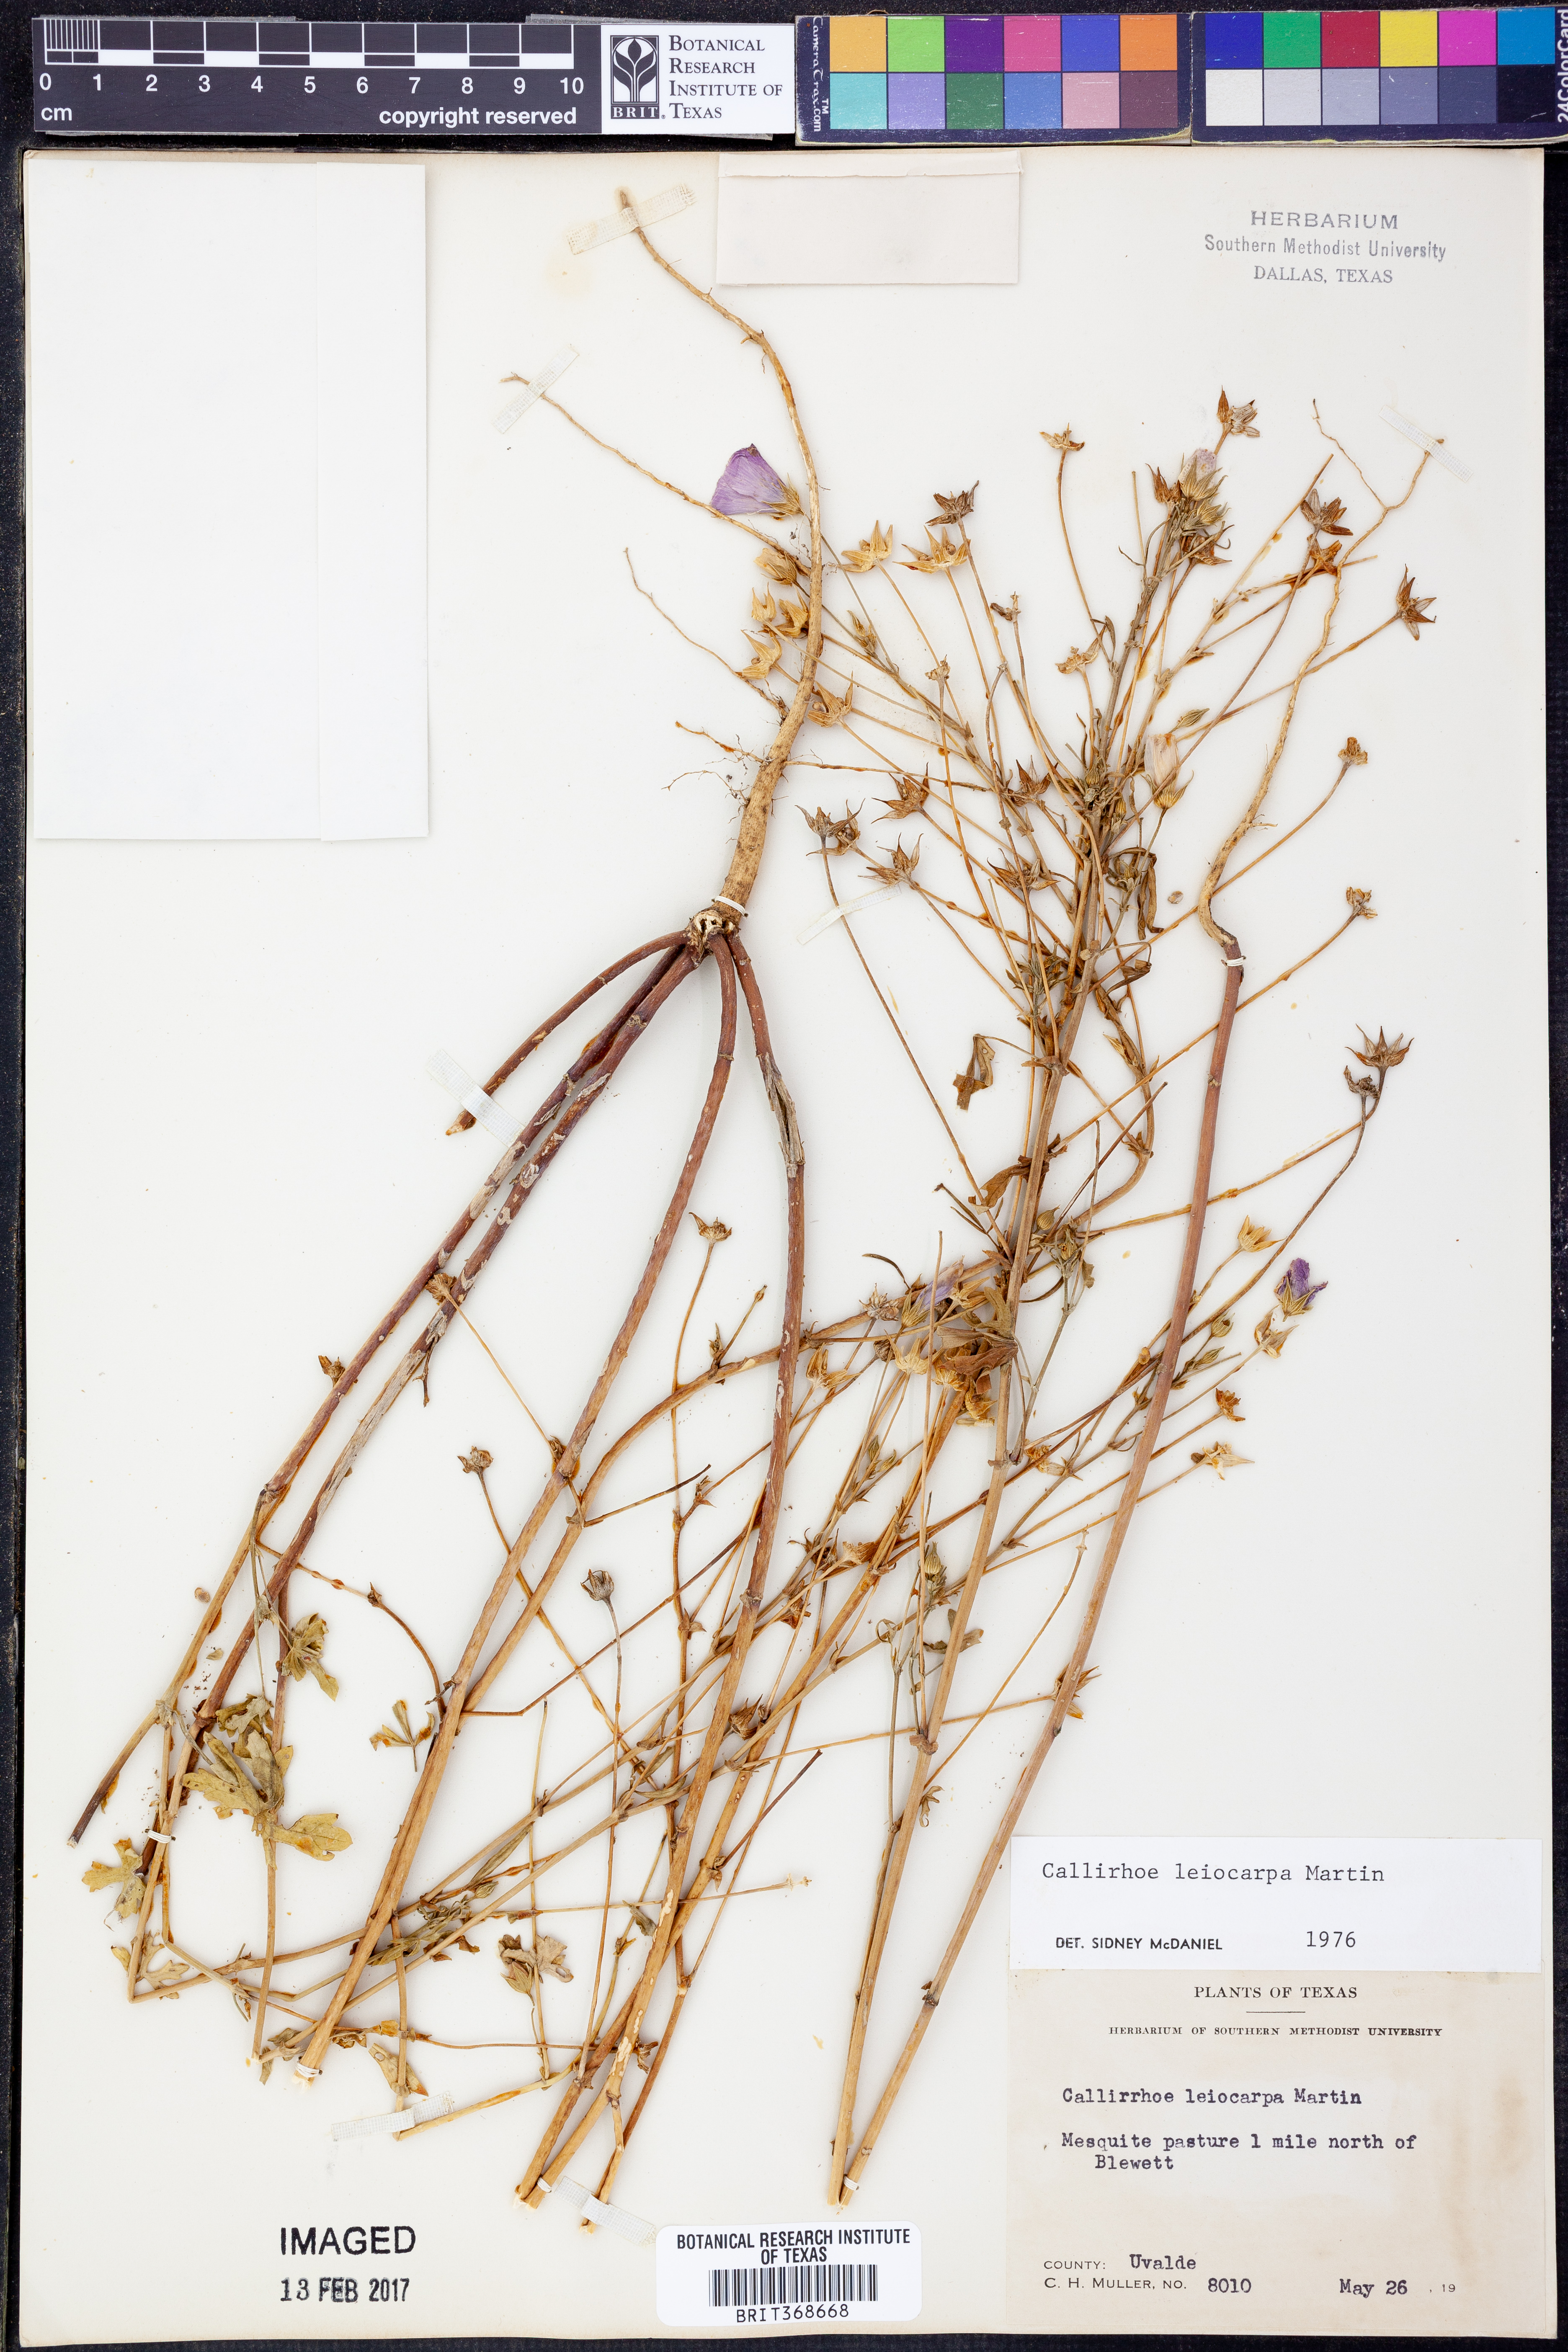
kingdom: Plantae
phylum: Tracheophyta
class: Magnoliopsida
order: Malvales
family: Malvaceae
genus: Callirhoe
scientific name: Callirhoe leiocarpa
